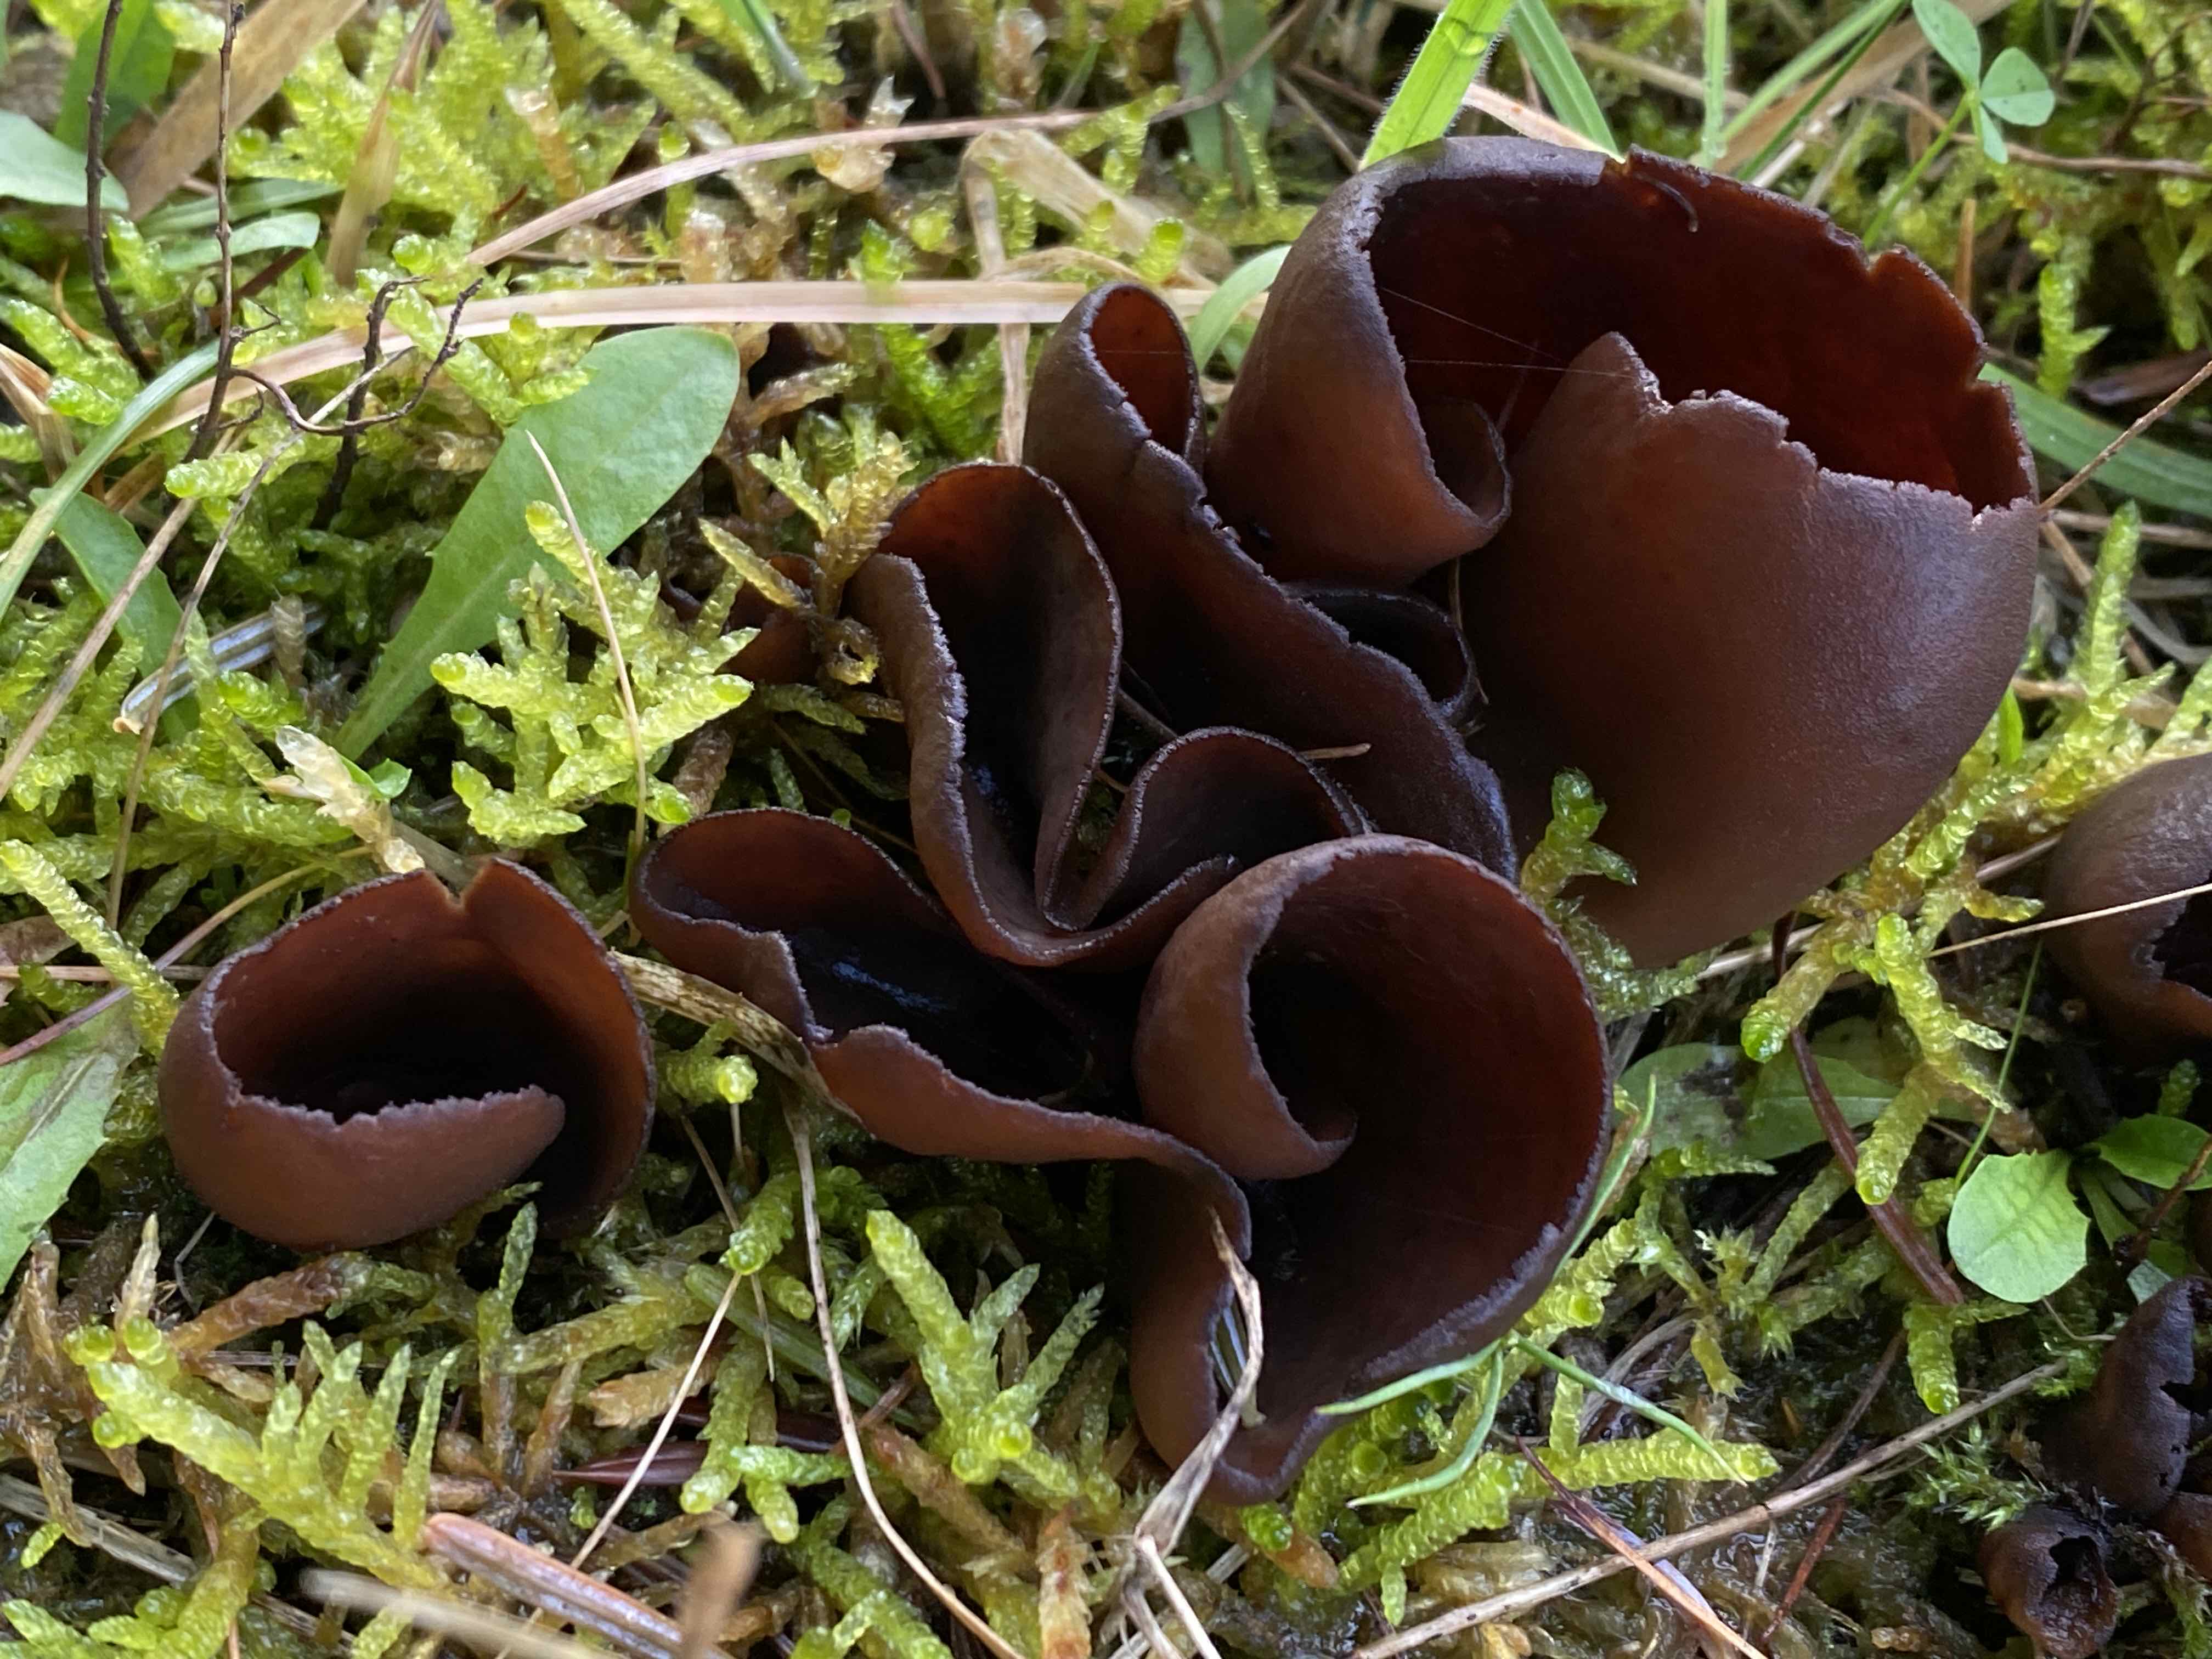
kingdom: Fungi
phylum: Ascomycota
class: Pezizomycetes
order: Pezizales
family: Otideaceae
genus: Otidea
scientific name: Otidea bufonia
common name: brun ørebæger
